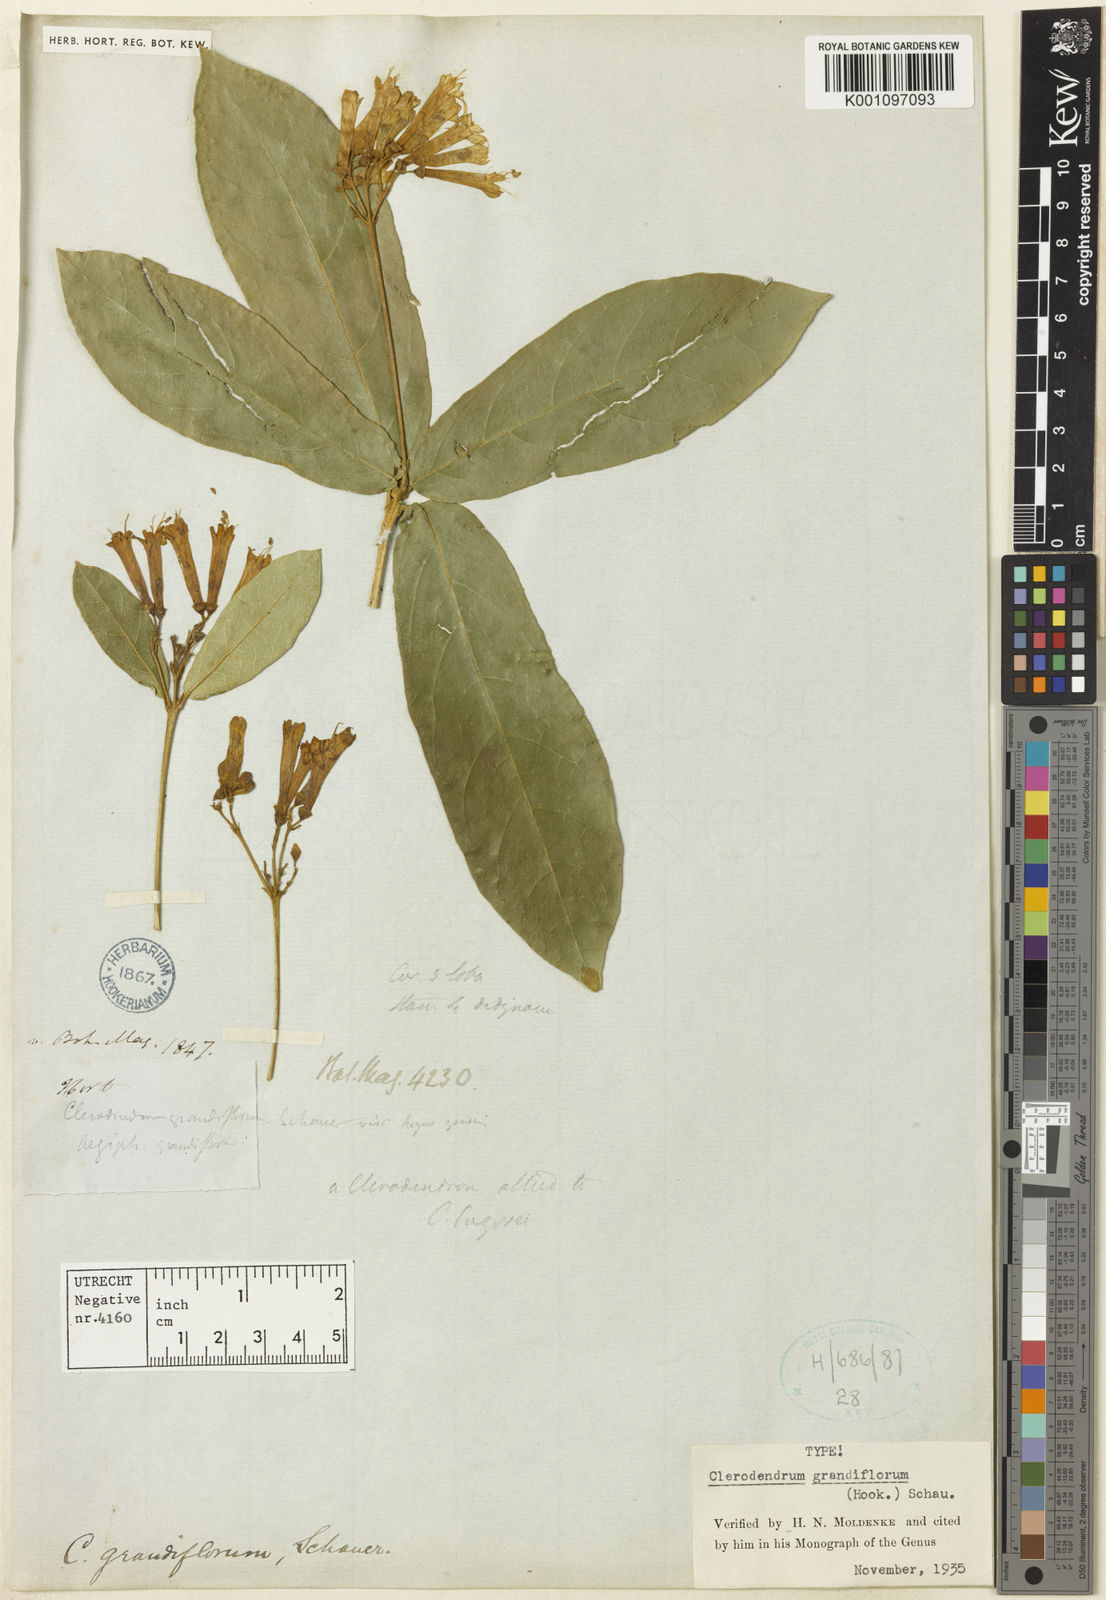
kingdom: Plantae
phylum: Tracheophyta
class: Magnoliopsida
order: Lamiales
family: Lamiaceae
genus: Ovieda
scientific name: Ovieda grandiflora
